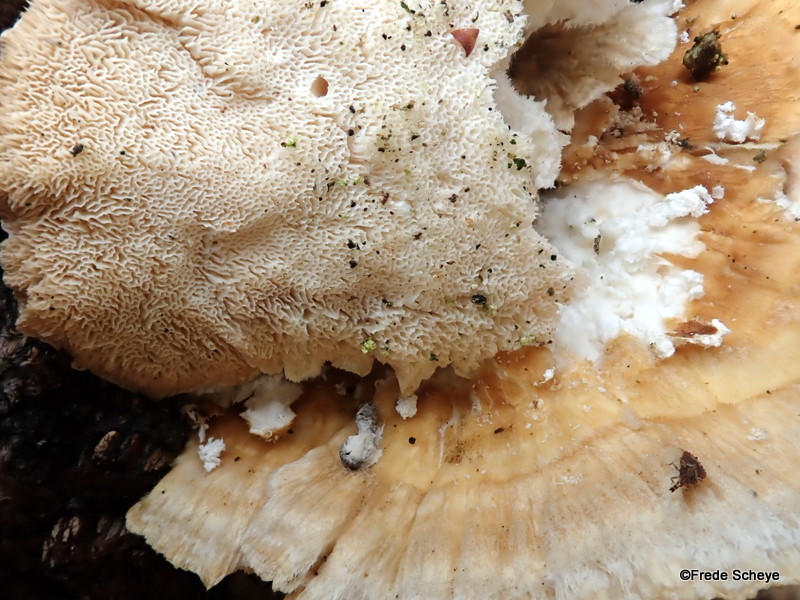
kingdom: Fungi
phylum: Basidiomycota
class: Agaricomycetes
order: Polyporales
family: Polyporaceae
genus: Trametes
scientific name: Trametes
